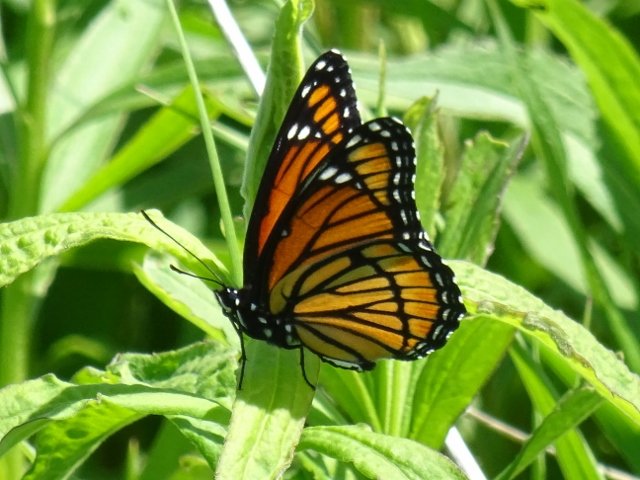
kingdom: Animalia
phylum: Arthropoda
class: Insecta
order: Lepidoptera
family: Nymphalidae
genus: Limenitis
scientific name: Limenitis archippus
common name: Viceroy
